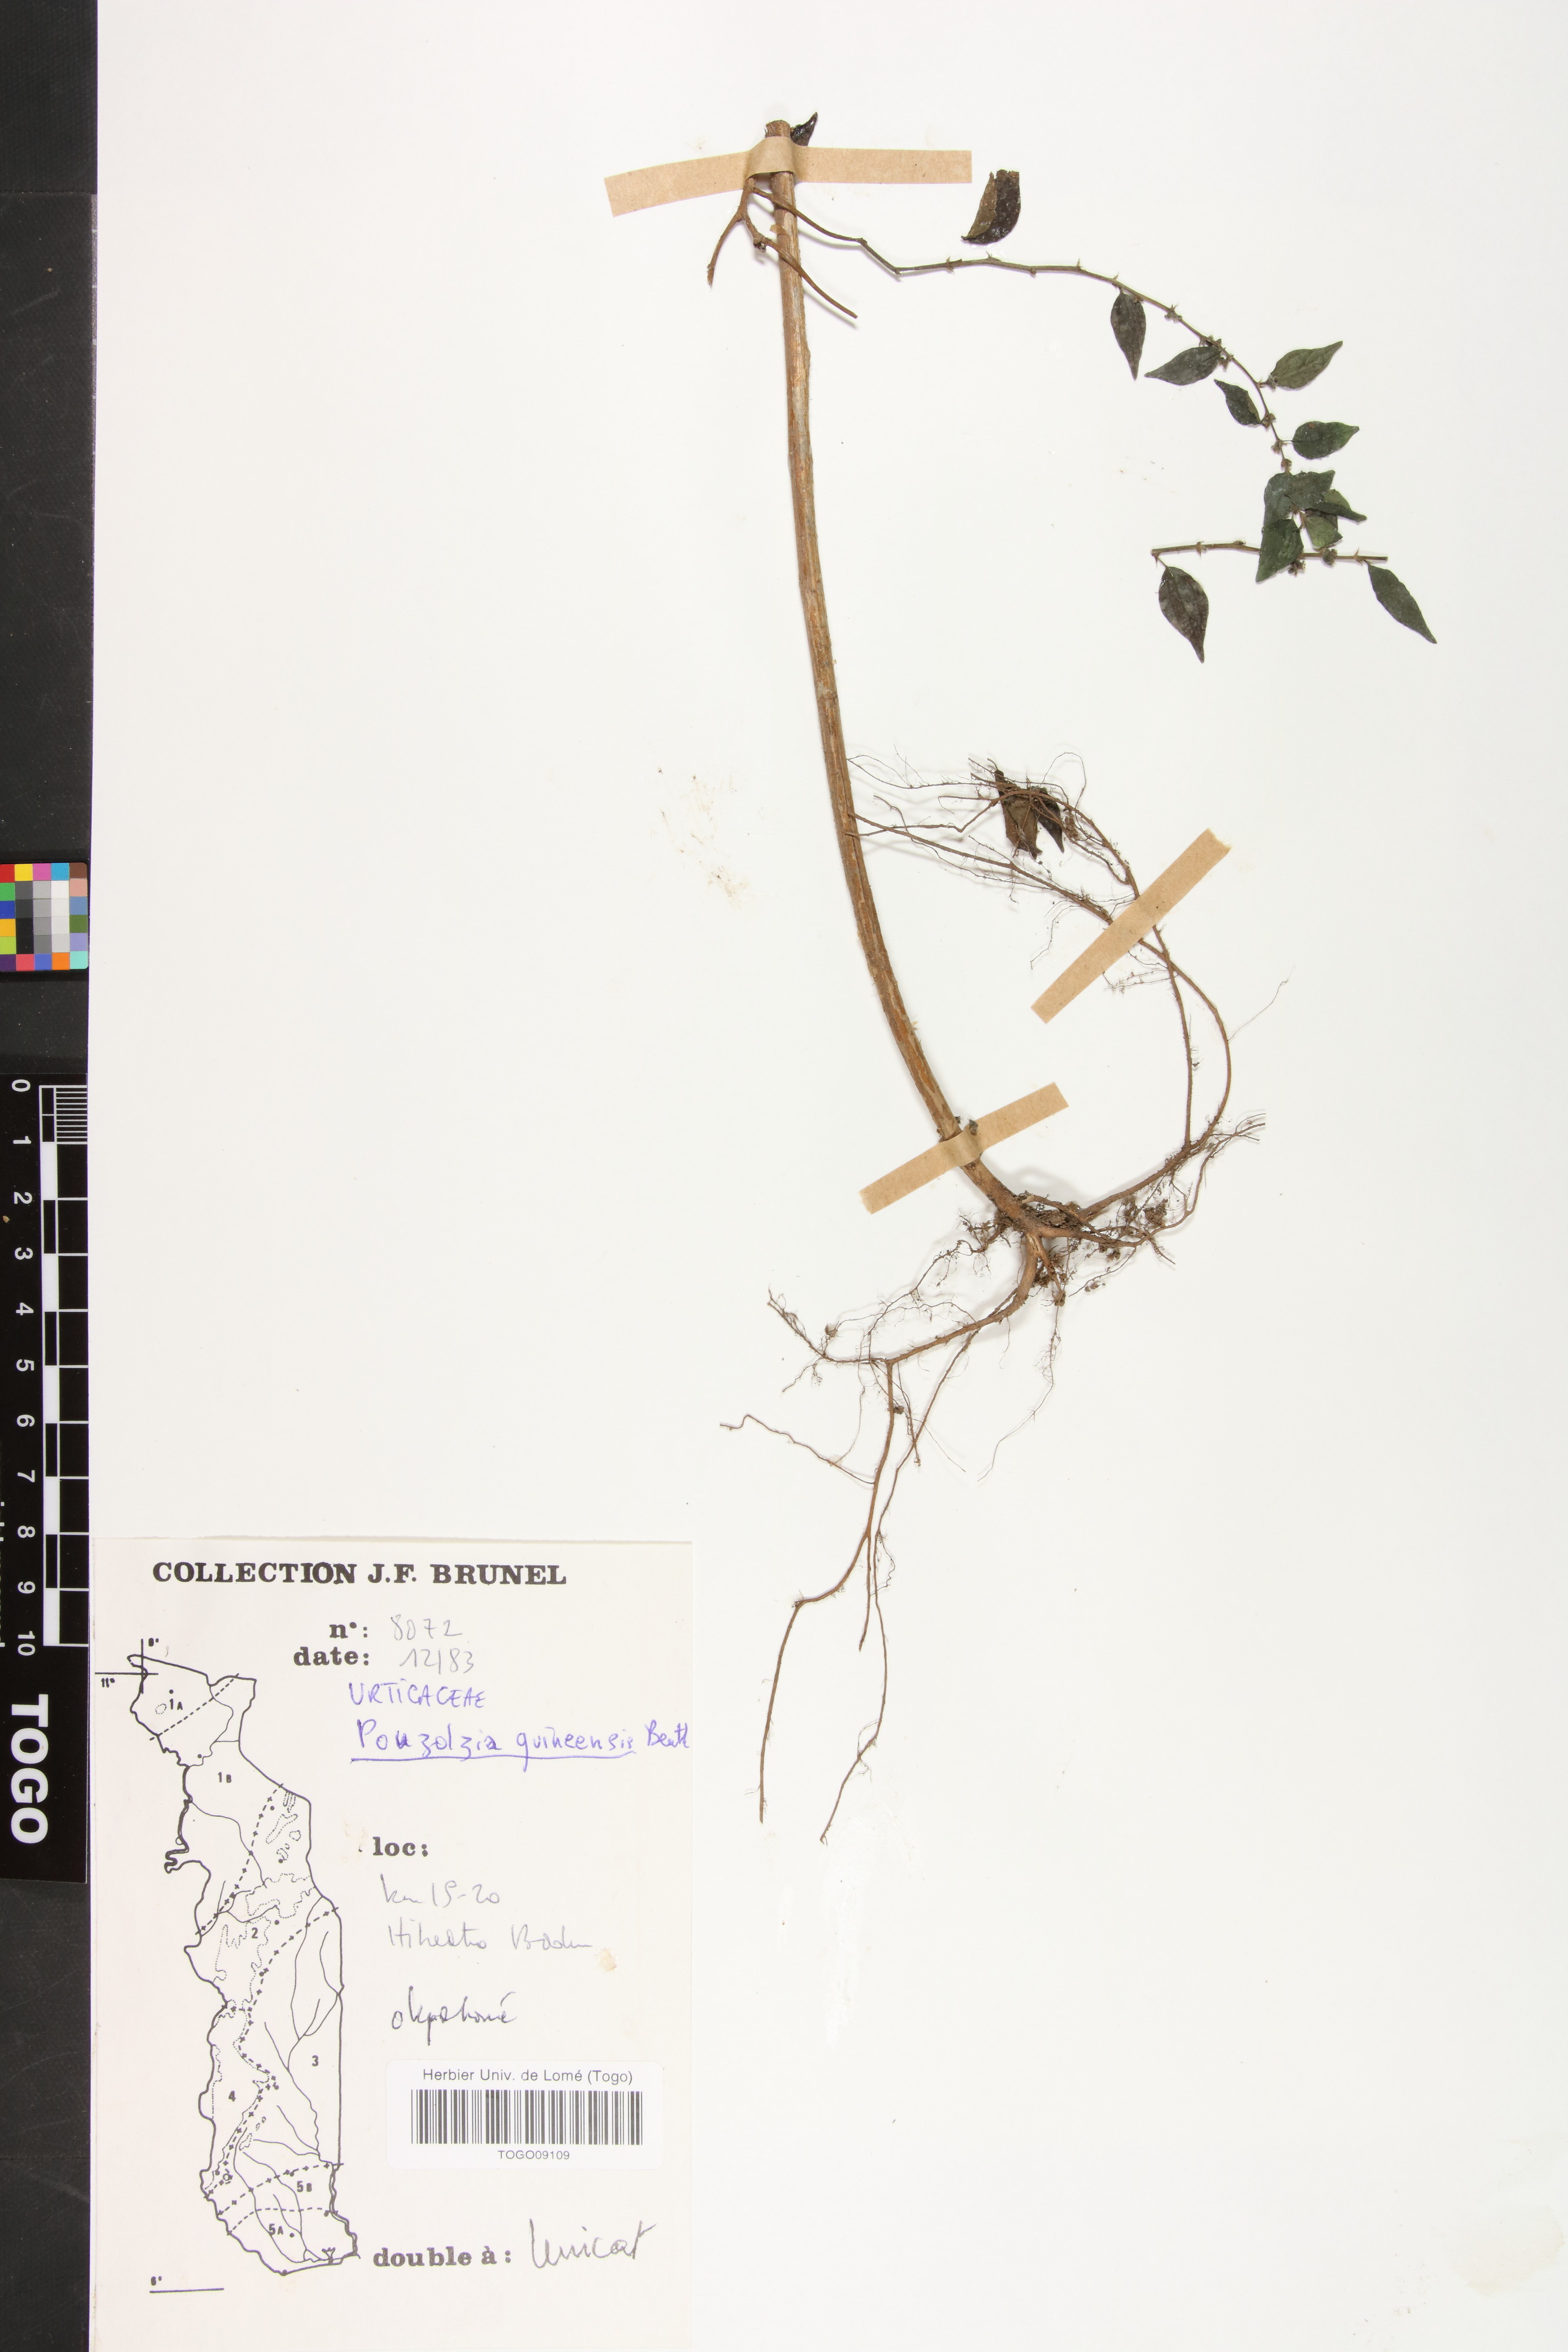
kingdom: Plantae
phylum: Tracheophyta
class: Magnoliopsida
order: Rosales
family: Urticaceae
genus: Pouzolzia
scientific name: Pouzolzia guineensis
